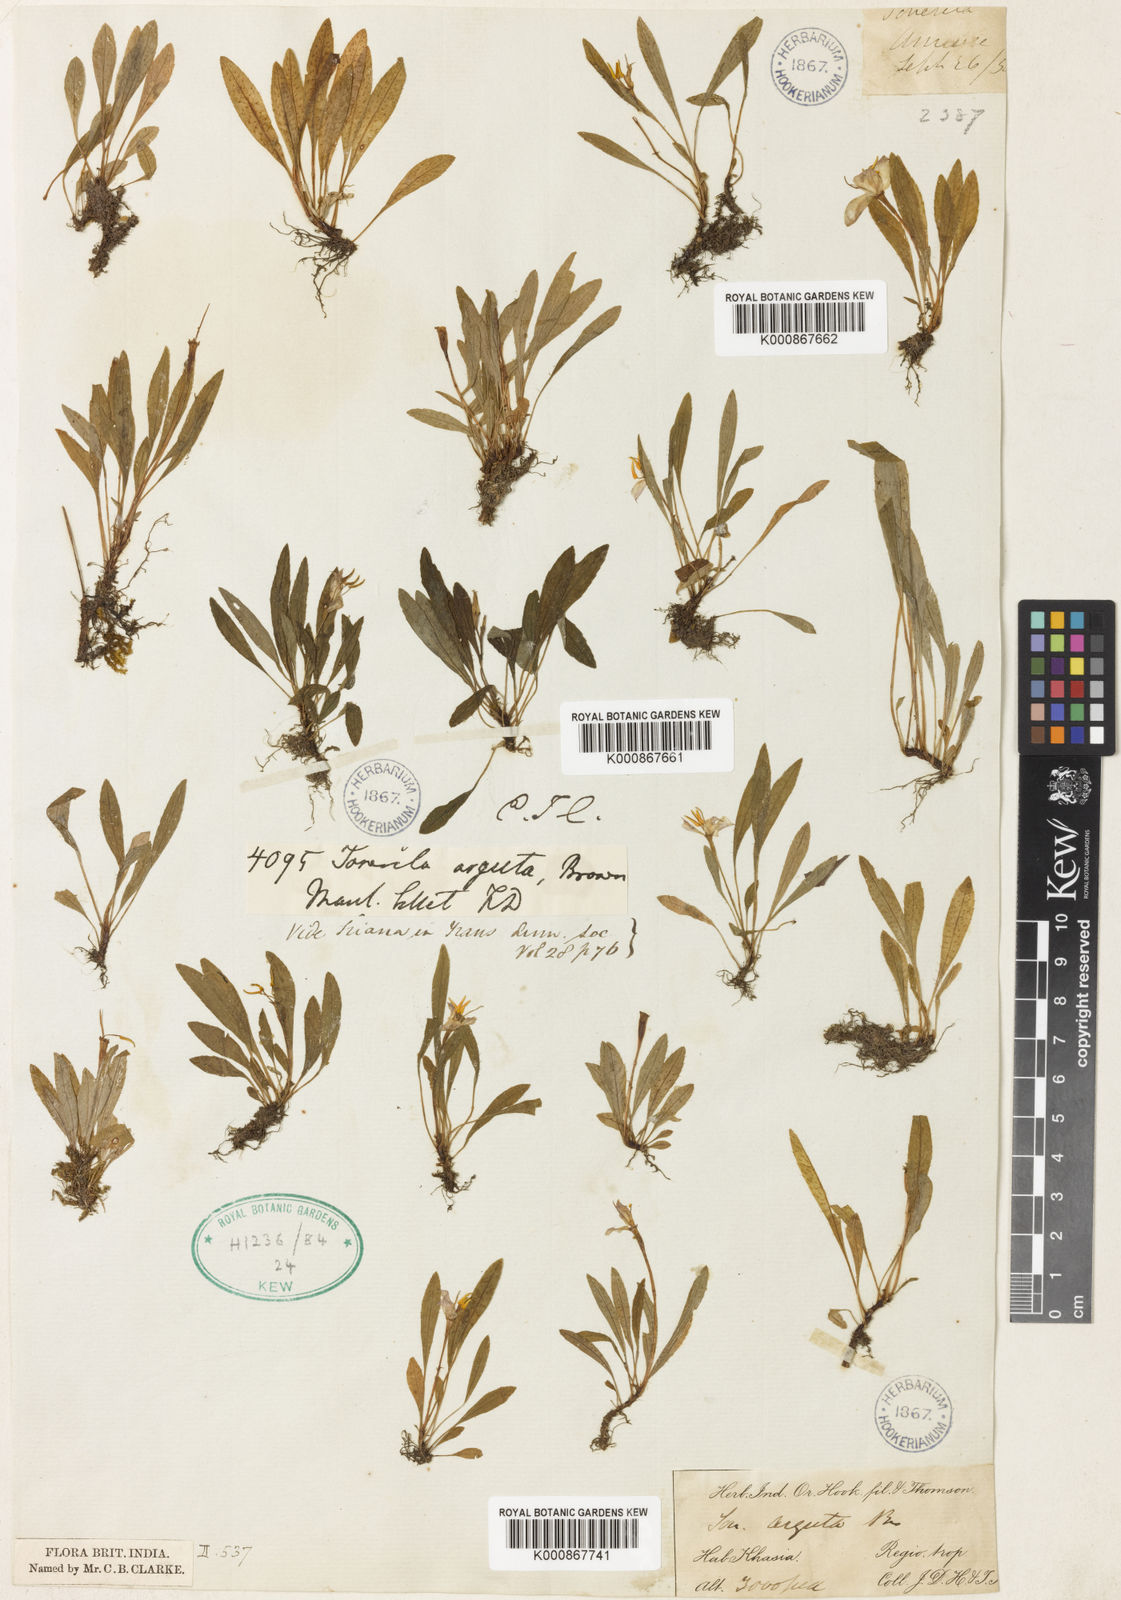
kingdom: Plantae
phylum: Tracheophyta
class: Magnoliopsida
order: Myrtales
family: Melastomataceae
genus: Sonerila
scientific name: Sonerila arguta
